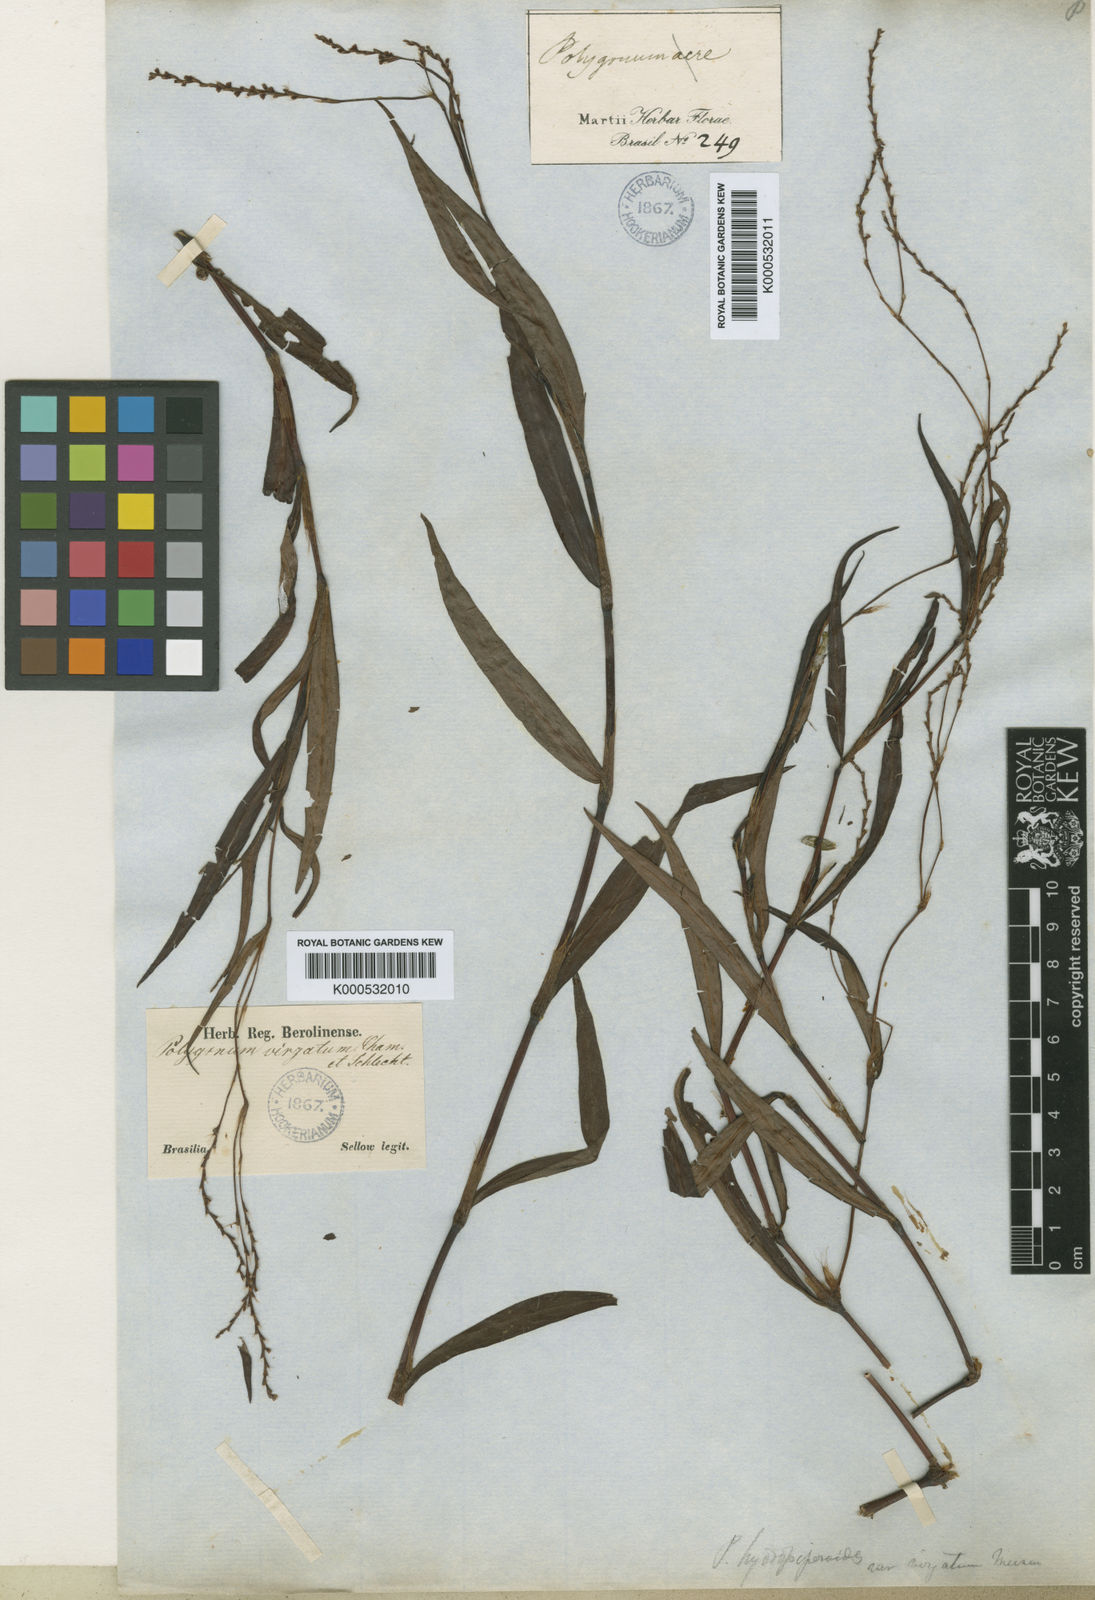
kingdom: Plantae
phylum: Tracheophyta
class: Magnoliopsida
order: Caryophyllales
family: Polygonaceae
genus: Persicaria
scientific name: Persicaria hydropiperoides
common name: Swamp smartweed
